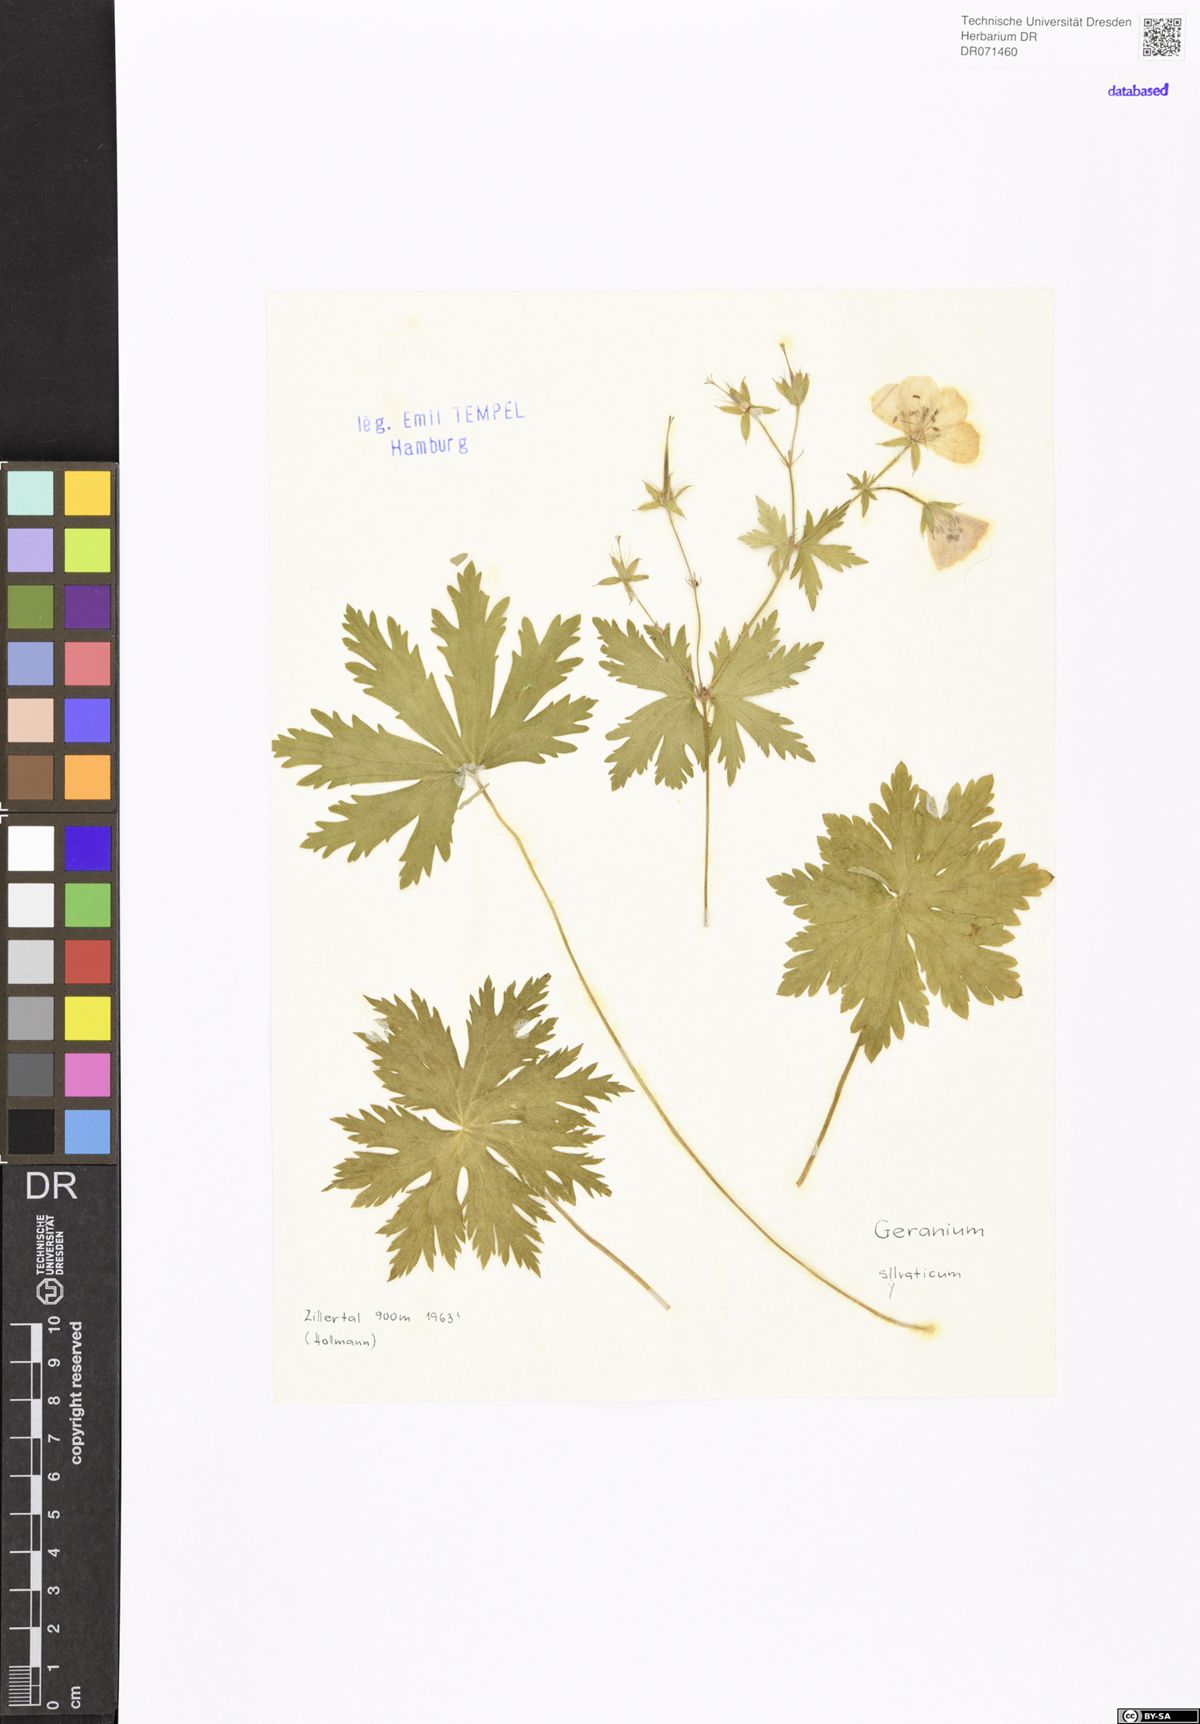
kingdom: Plantae
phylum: Tracheophyta
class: Magnoliopsida
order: Geraniales
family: Geraniaceae
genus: Geranium
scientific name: Geranium sylvaticum
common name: Wood crane's-bill
